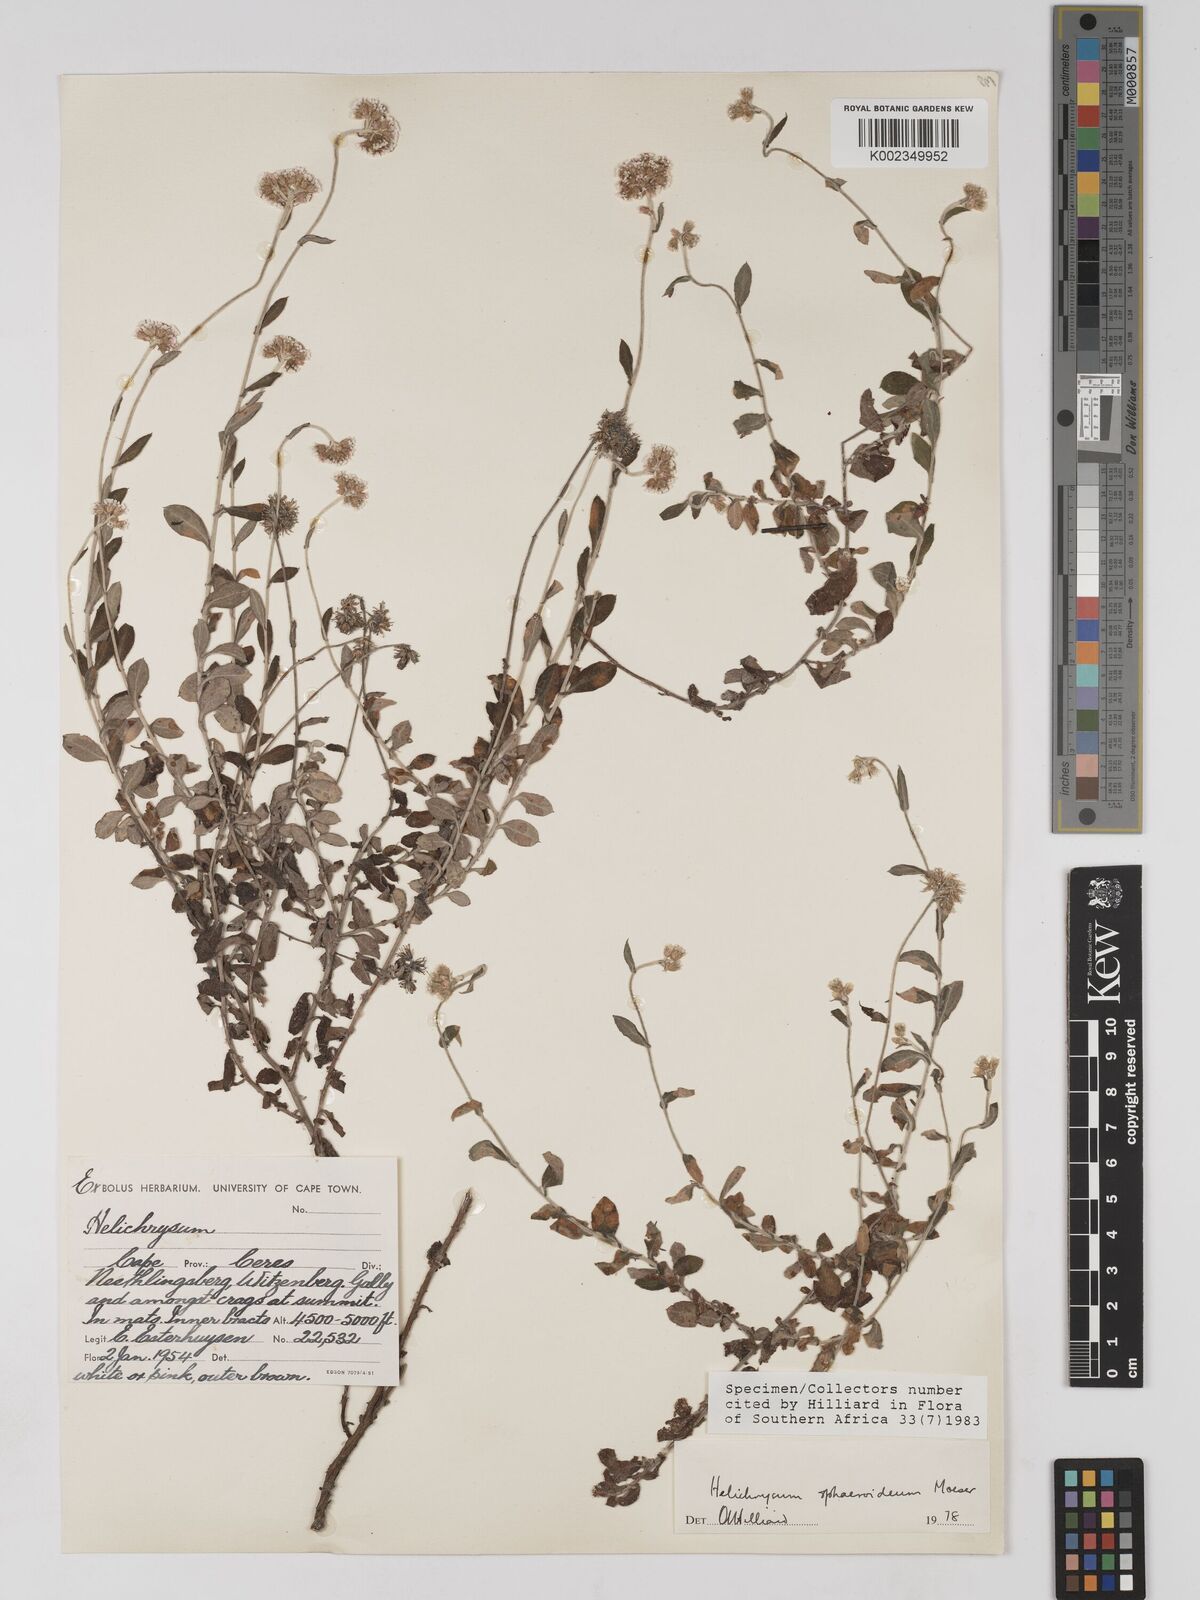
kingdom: Plantae
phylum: Tracheophyta
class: Magnoliopsida
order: Asterales
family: Asteraceae
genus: Helichrysum
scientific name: Helichrysum sphaeroideum
